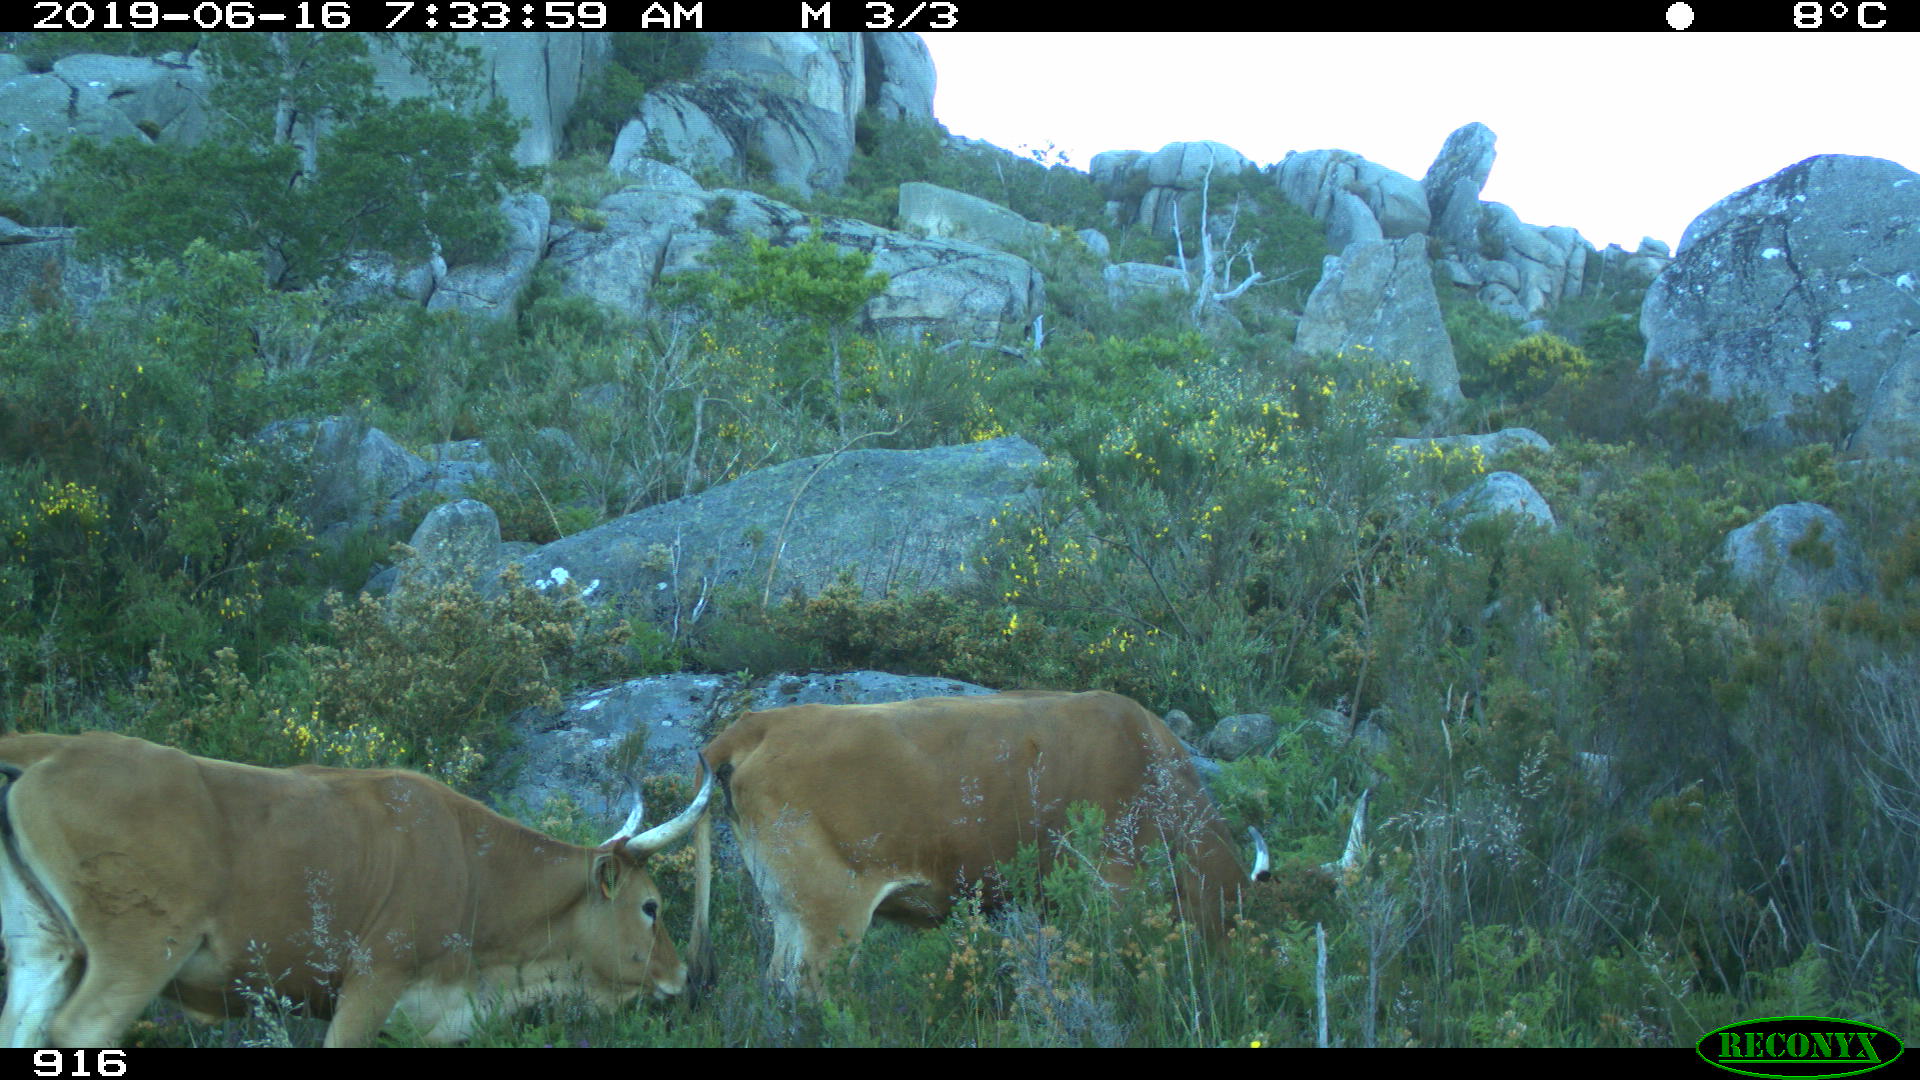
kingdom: Animalia
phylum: Chordata
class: Mammalia
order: Artiodactyla
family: Bovidae
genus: Bos
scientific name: Bos taurus
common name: Domesticated cattle
